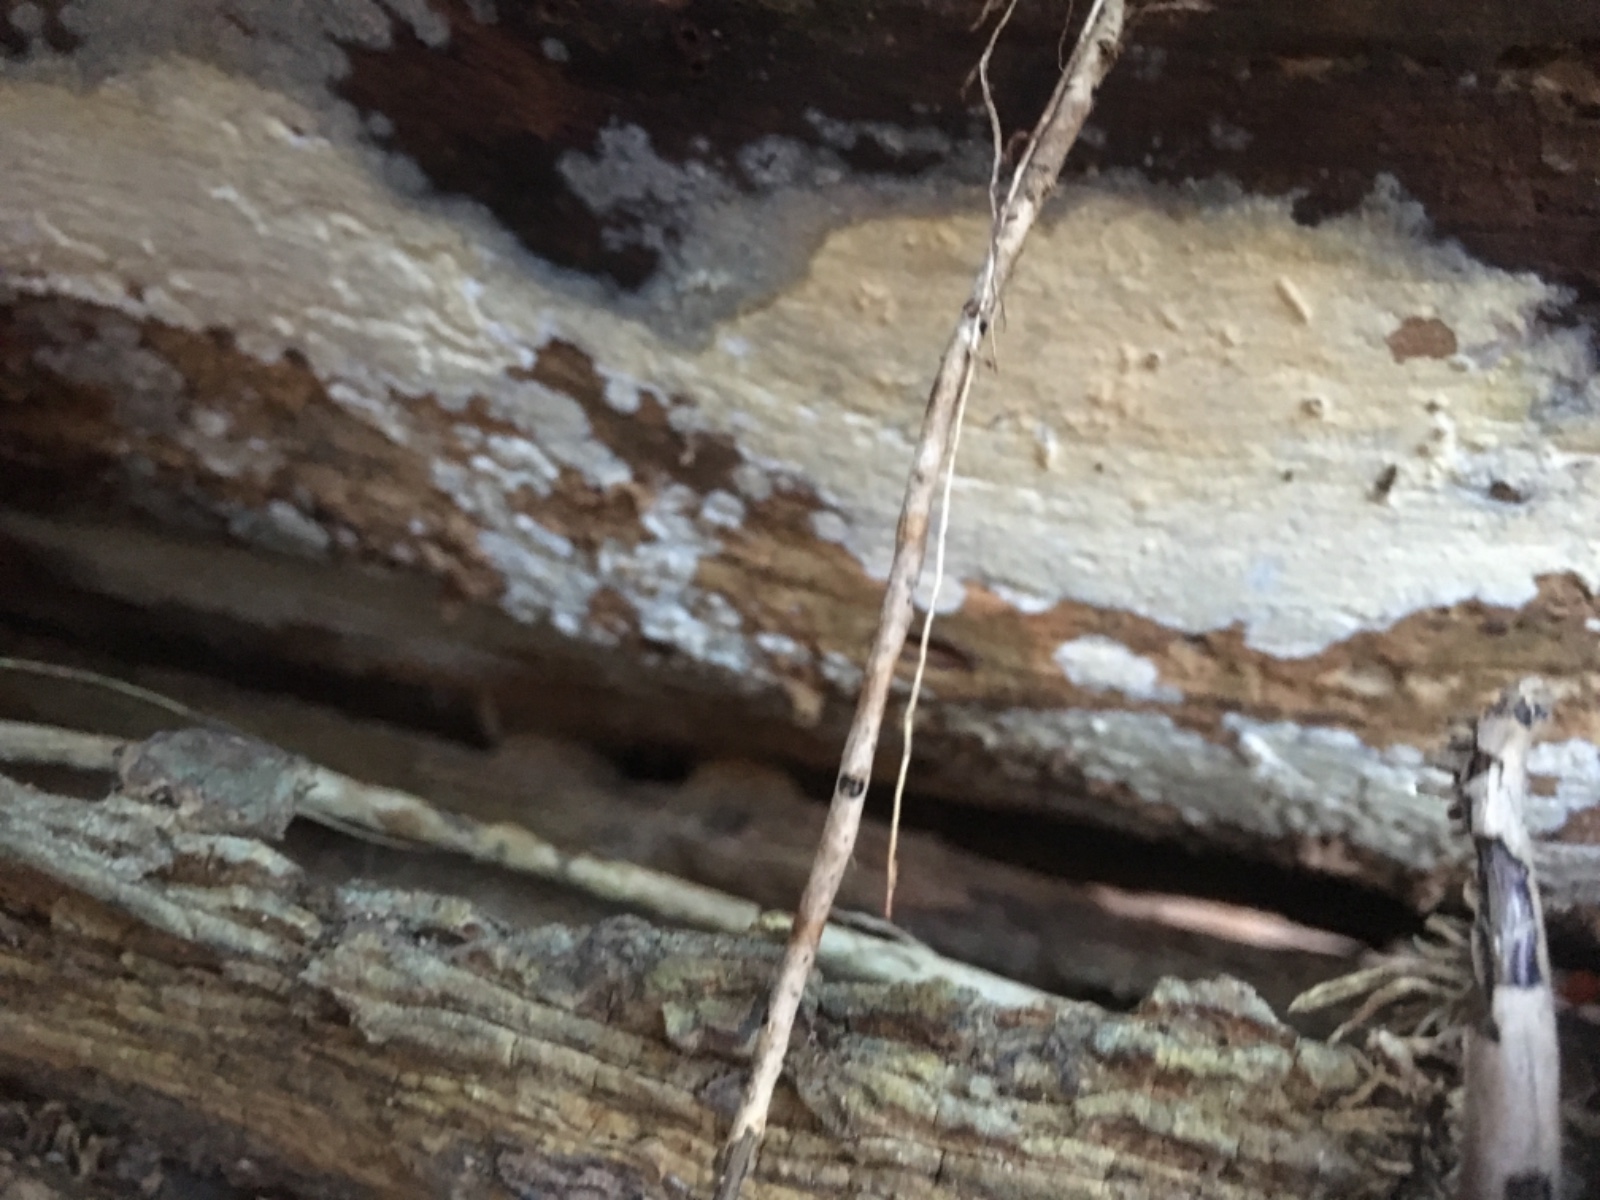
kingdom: Fungi
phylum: Basidiomycota
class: Agaricomycetes
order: Corticiales
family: Corticiaceae
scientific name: Corticiaceae
